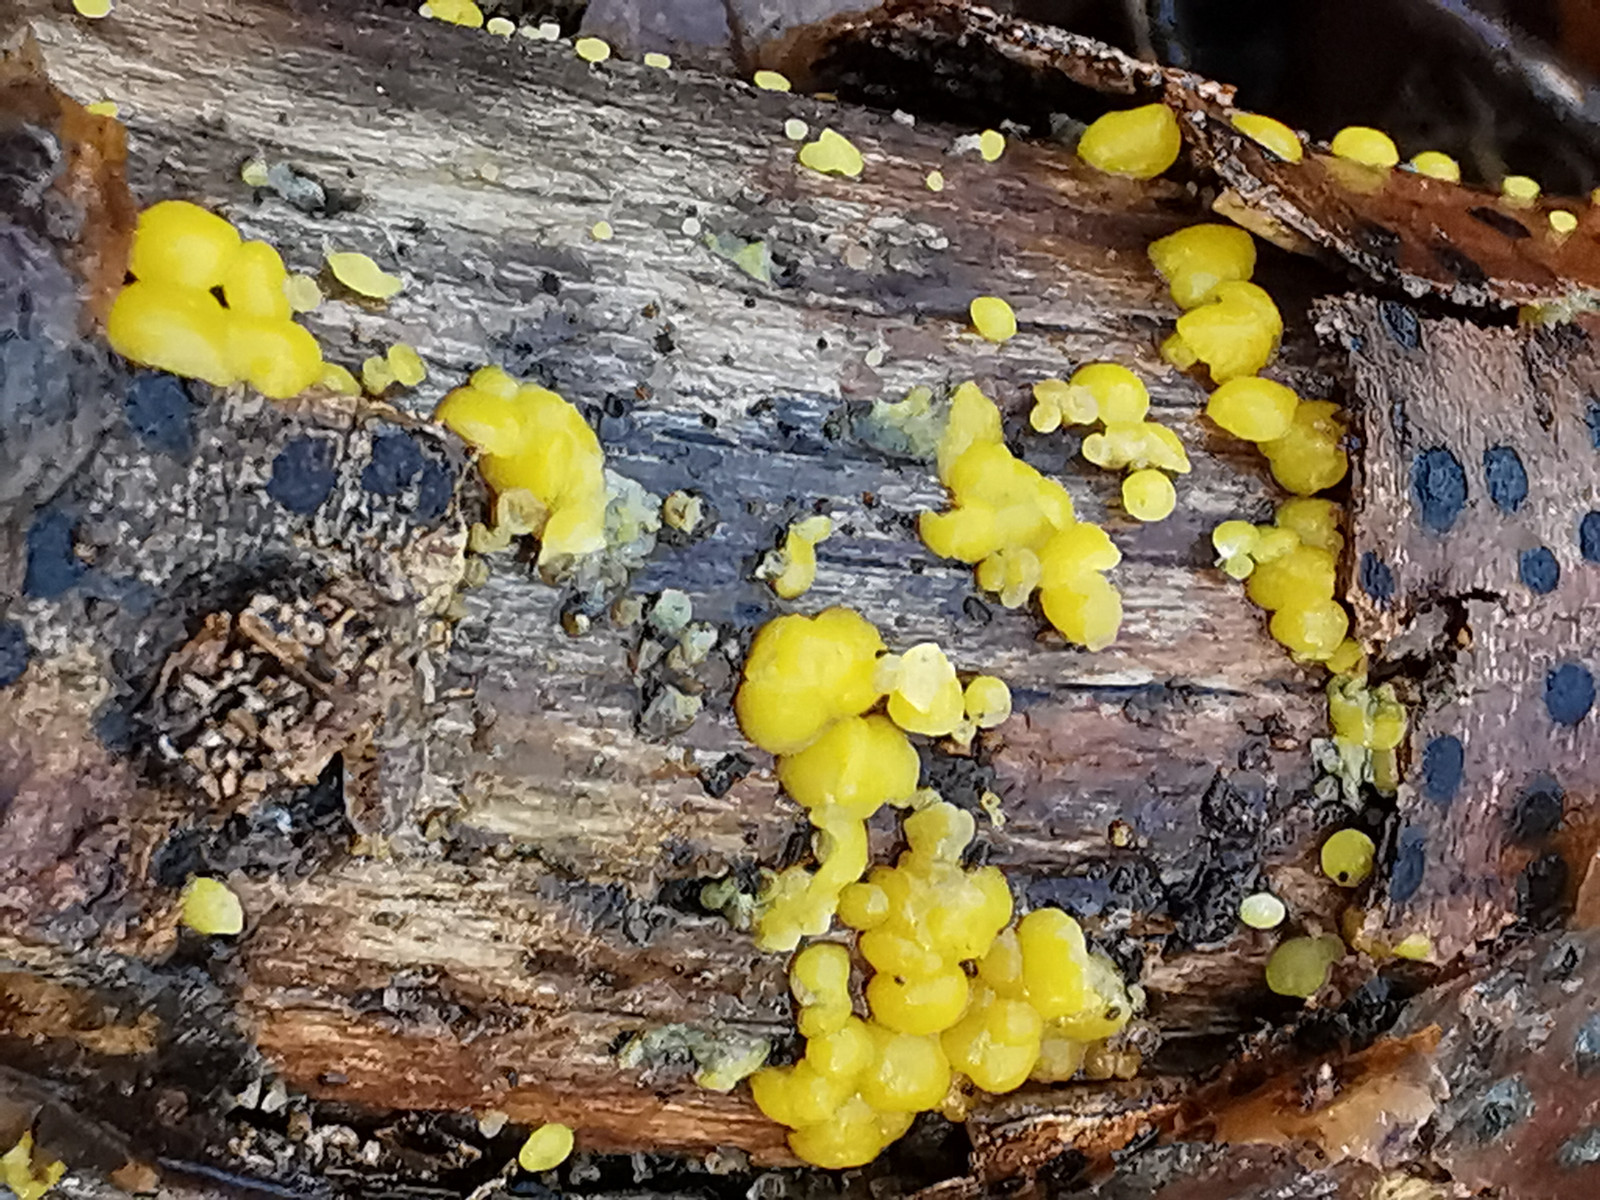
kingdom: Fungi
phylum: Ascomycota
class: Leotiomycetes
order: Helotiales
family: Pezizellaceae
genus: Calycina
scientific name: Calycina citrina
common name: almindelig gulskive
